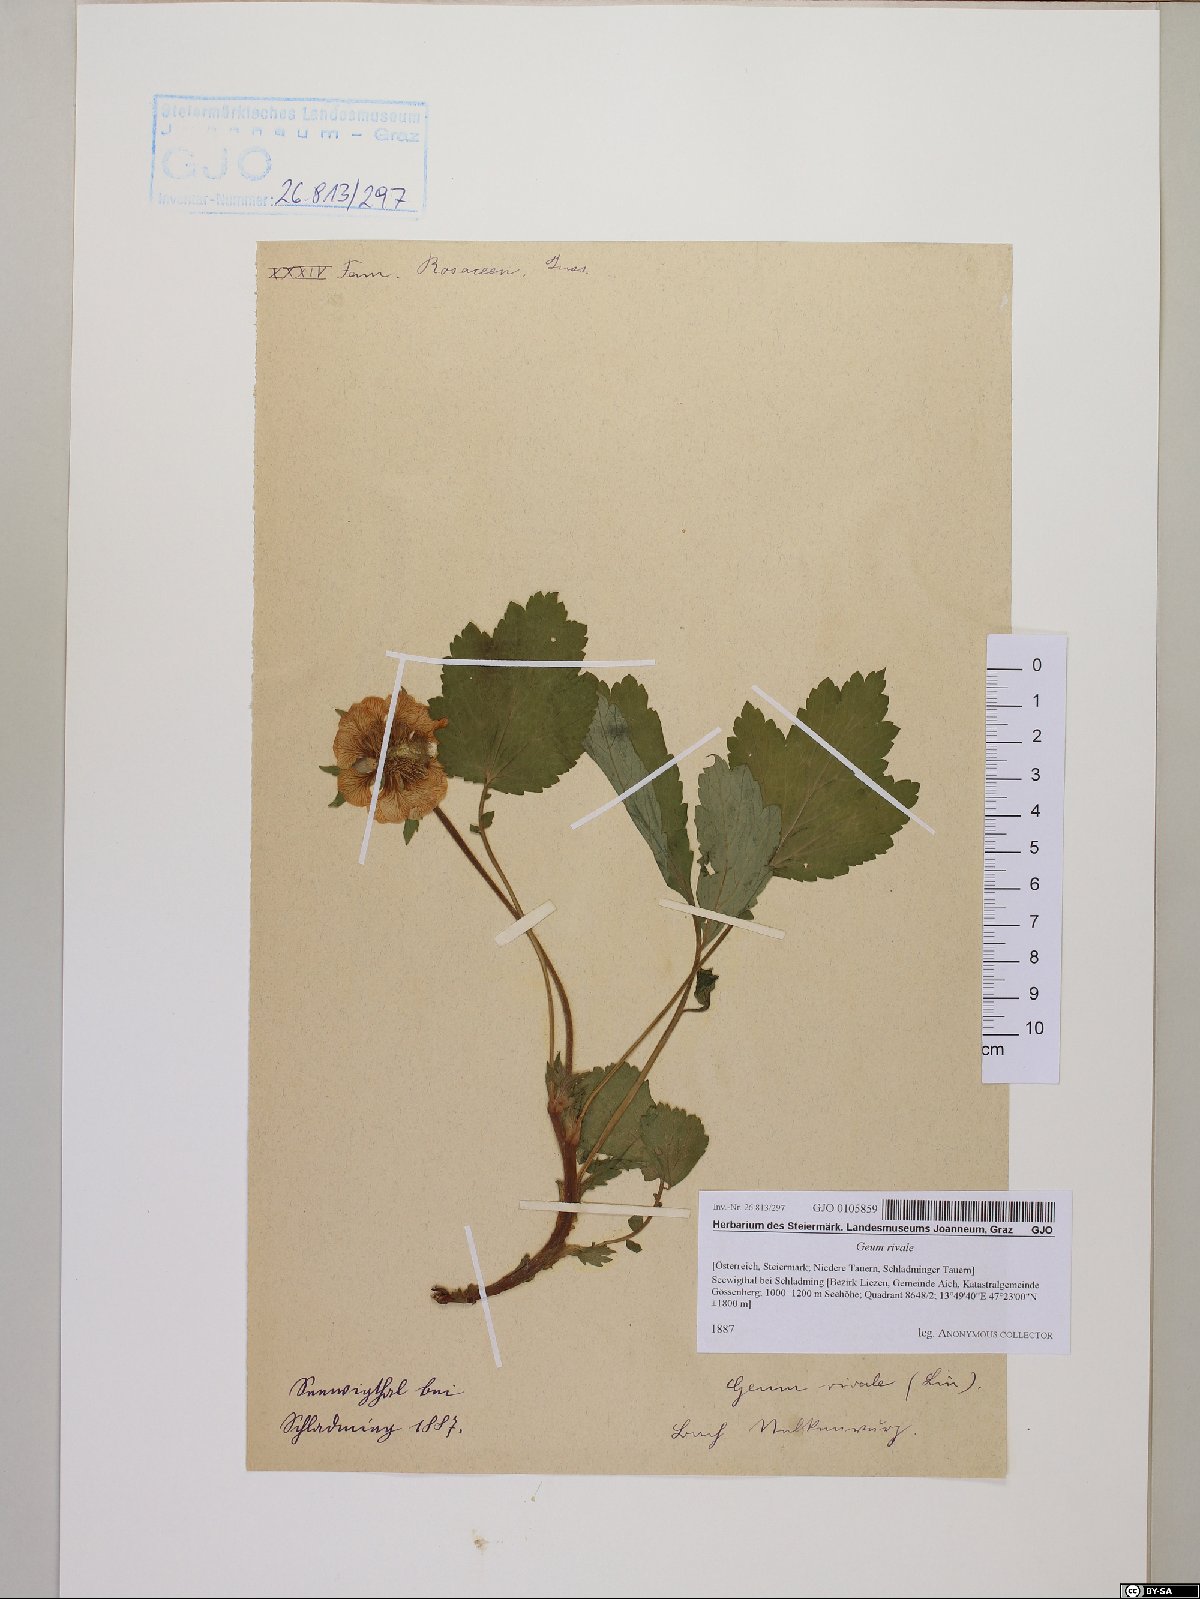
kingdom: Plantae
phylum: Tracheophyta
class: Magnoliopsida
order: Rosales
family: Rosaceae
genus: Geum
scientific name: Geum rivale
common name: Water avens
